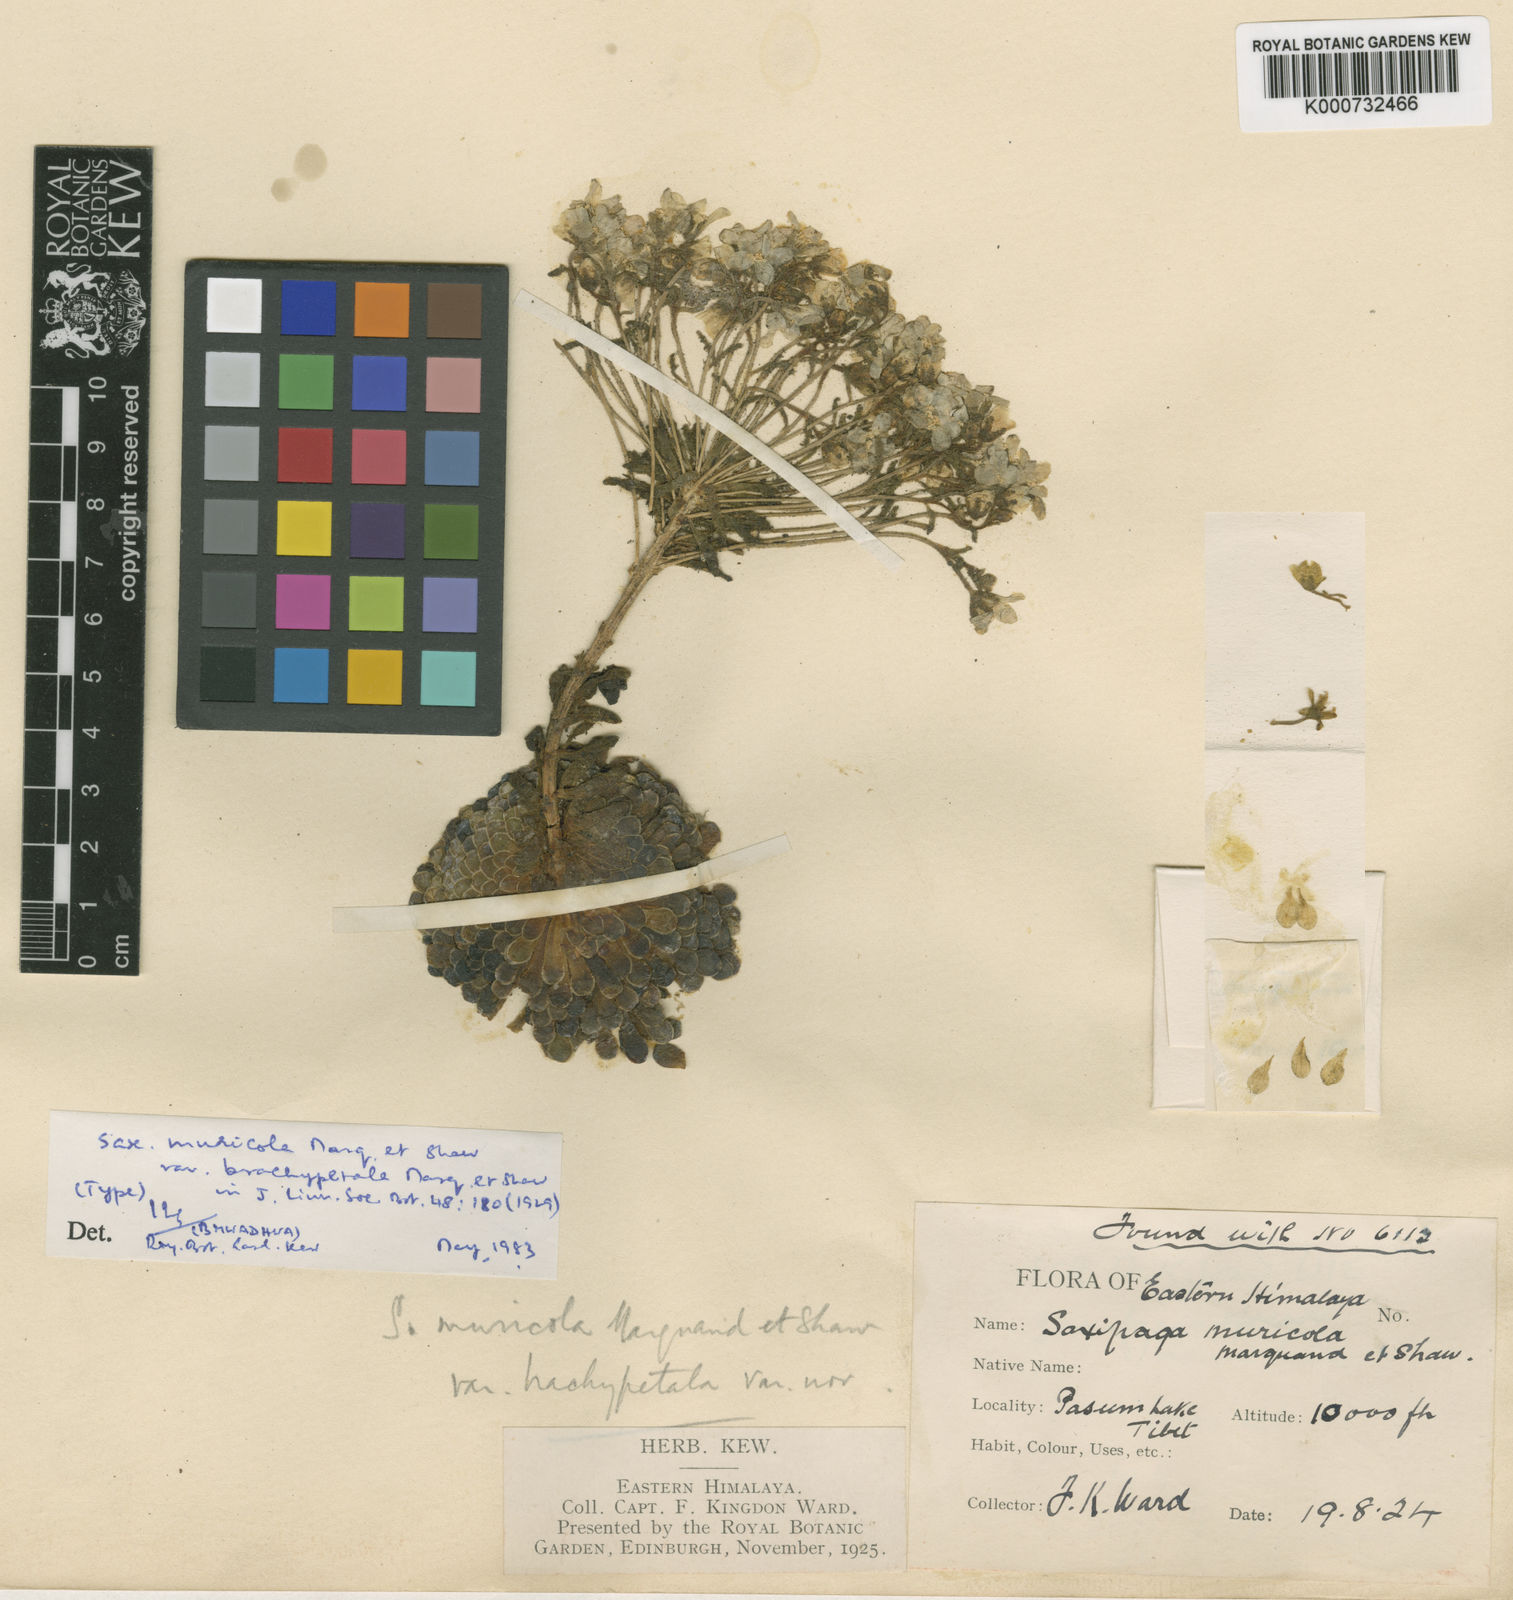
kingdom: Plantae
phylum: Tracheophyta
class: Magnoliopsida
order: Saxifragales
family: Saxifragaceae
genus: Saxifraga
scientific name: Saxifraga umbellulata
